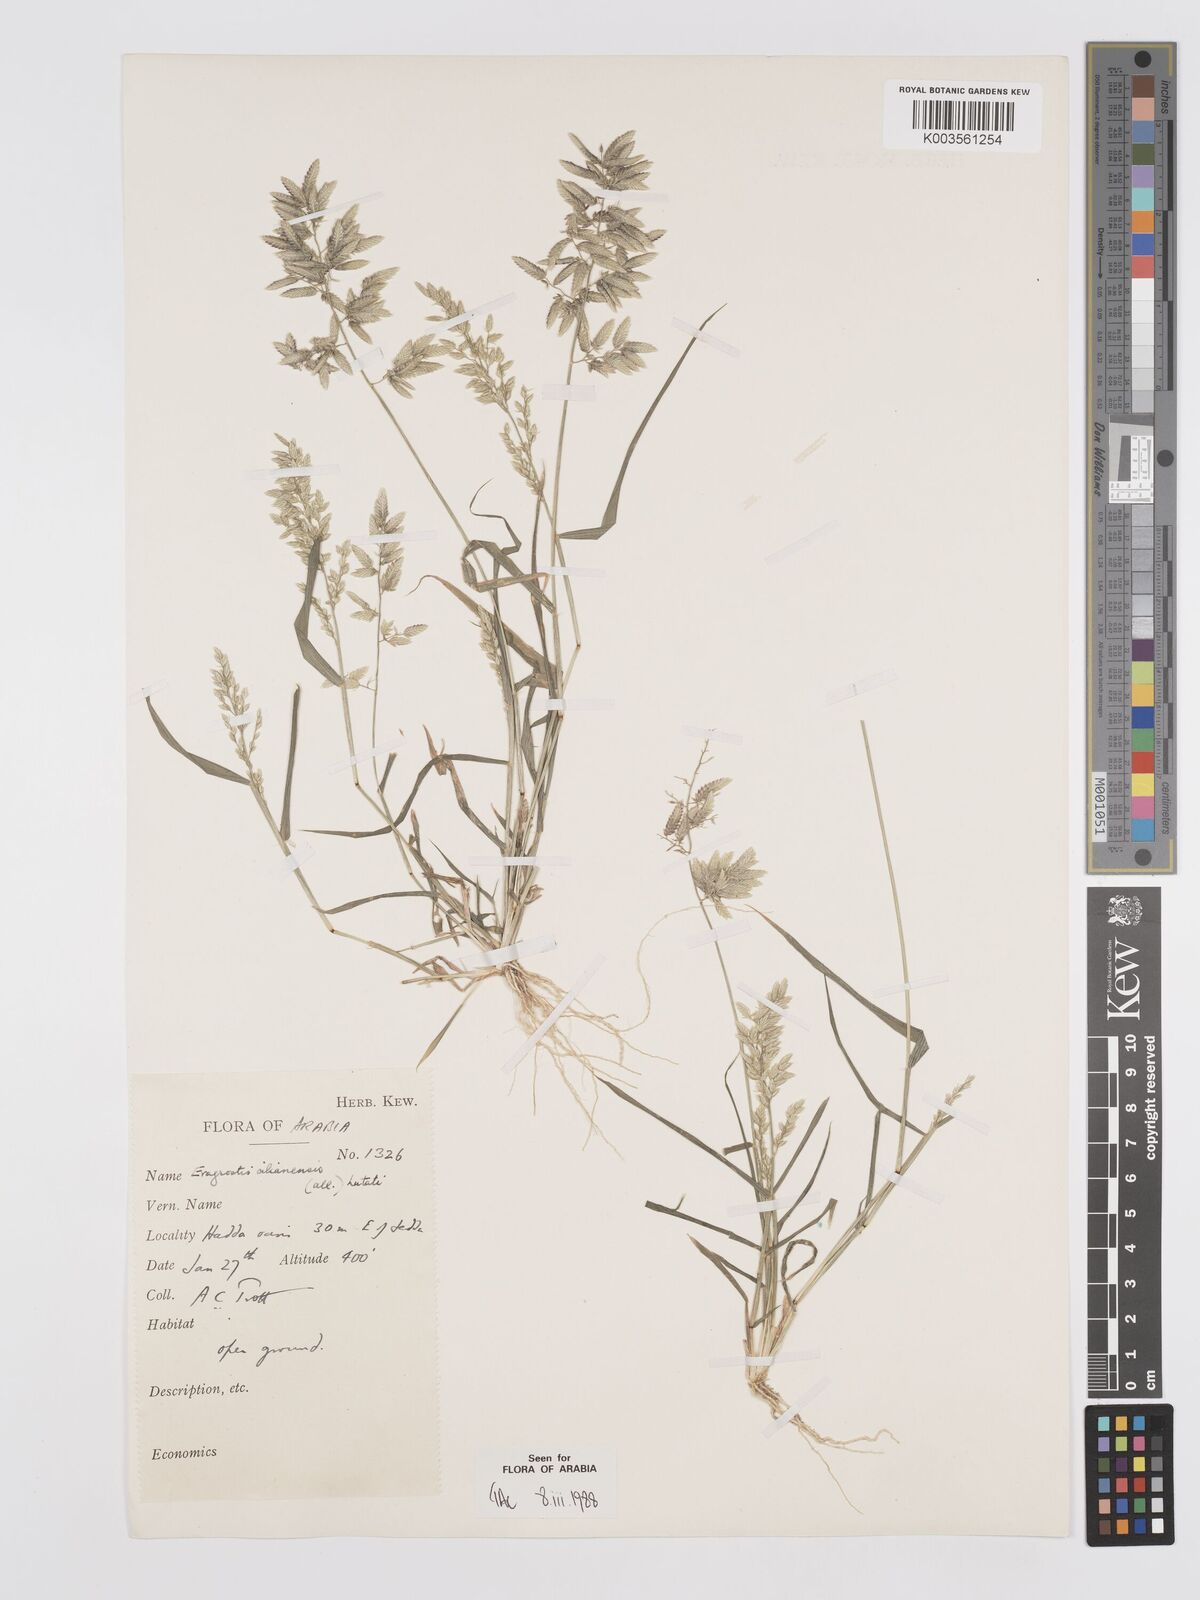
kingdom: Plantae
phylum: Tracheophyta
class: Liliopsida
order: Poales
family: Poaceae
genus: Eragrostis
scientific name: Eragrostis cilianensis
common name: Stinkgrass
